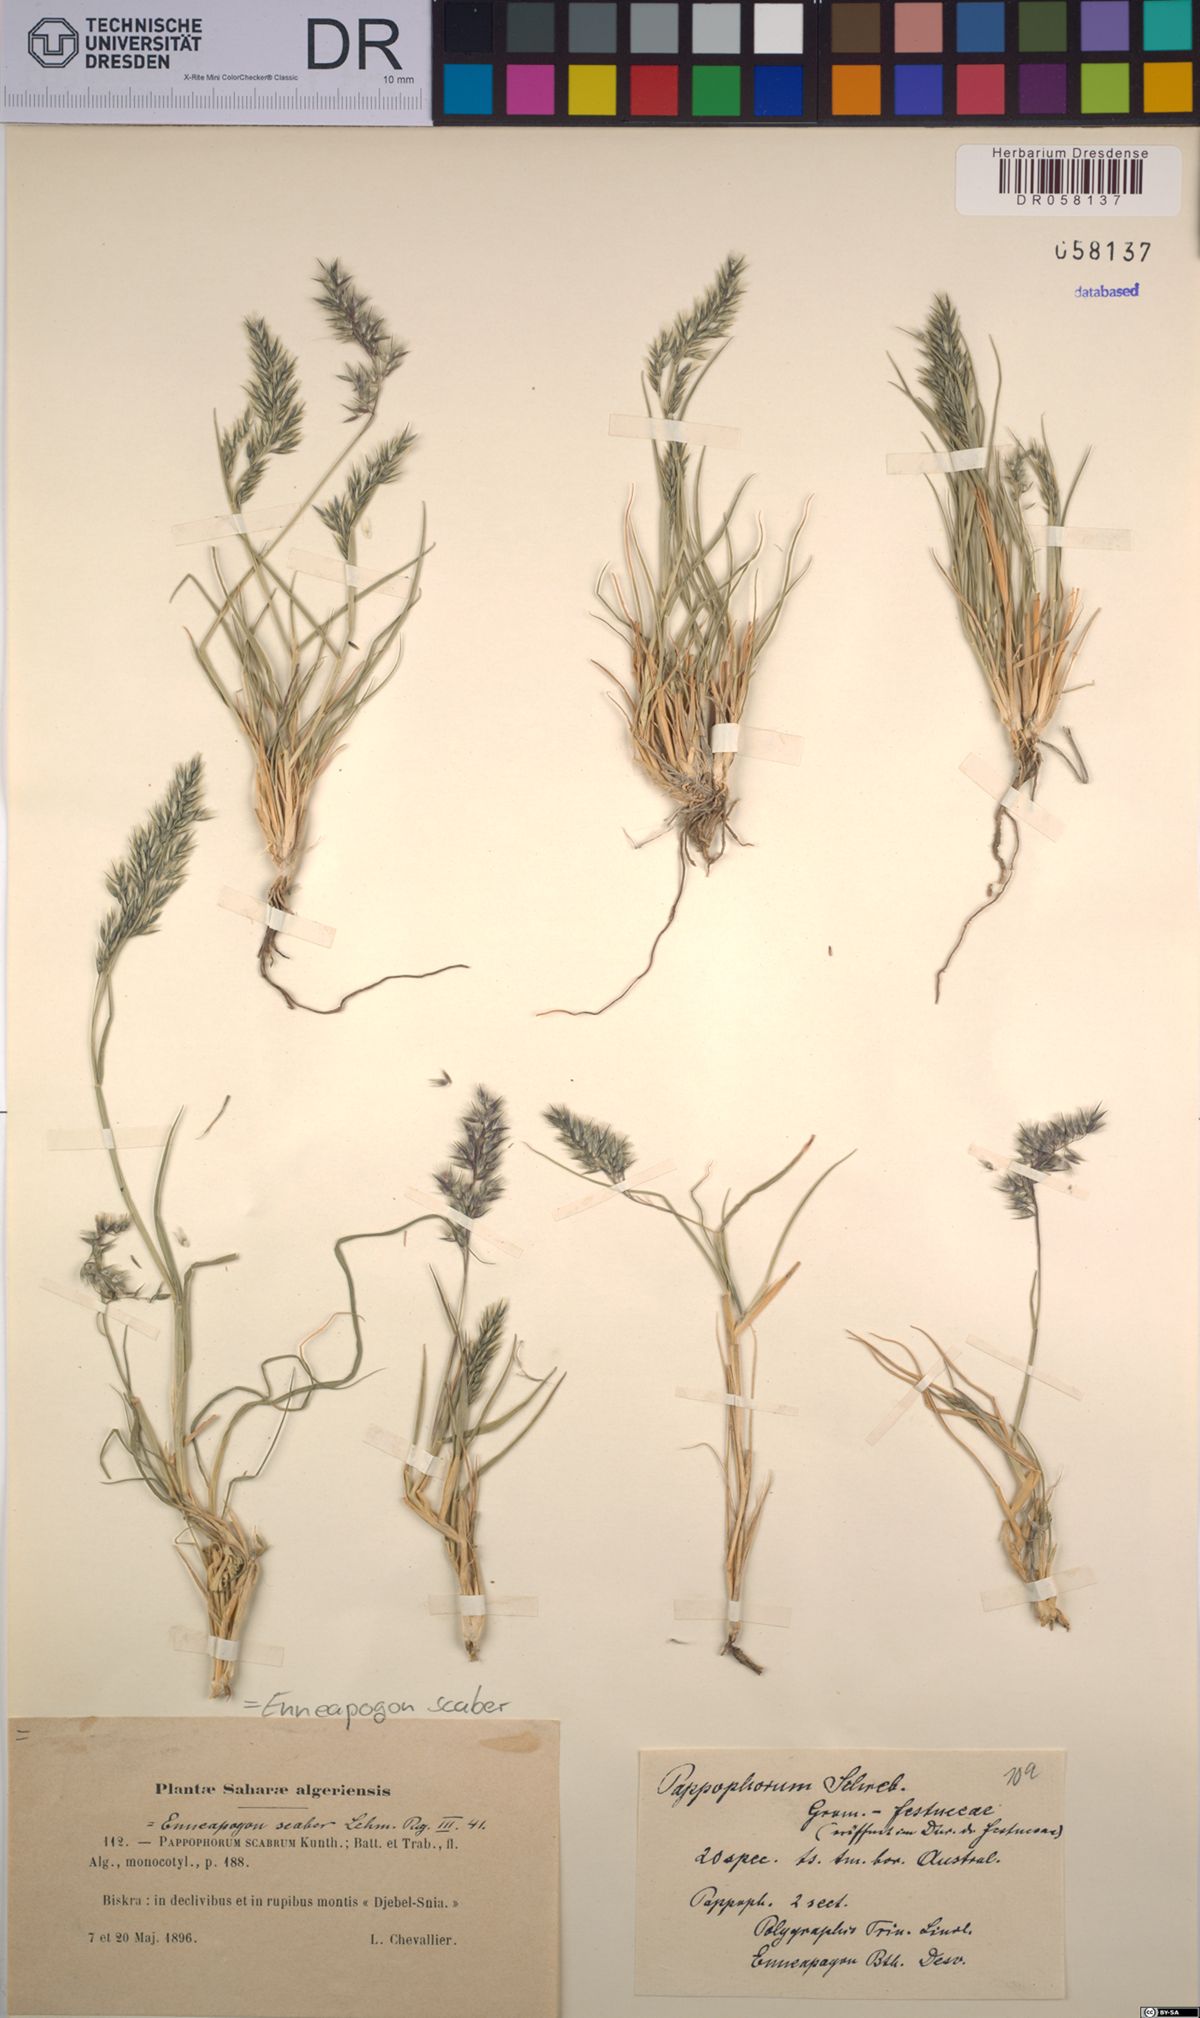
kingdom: Plantae
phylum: Tracheophyta
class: Liliopsida
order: Poales
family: Poaceae
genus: Enneapogon
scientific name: Enneapogon scaber
